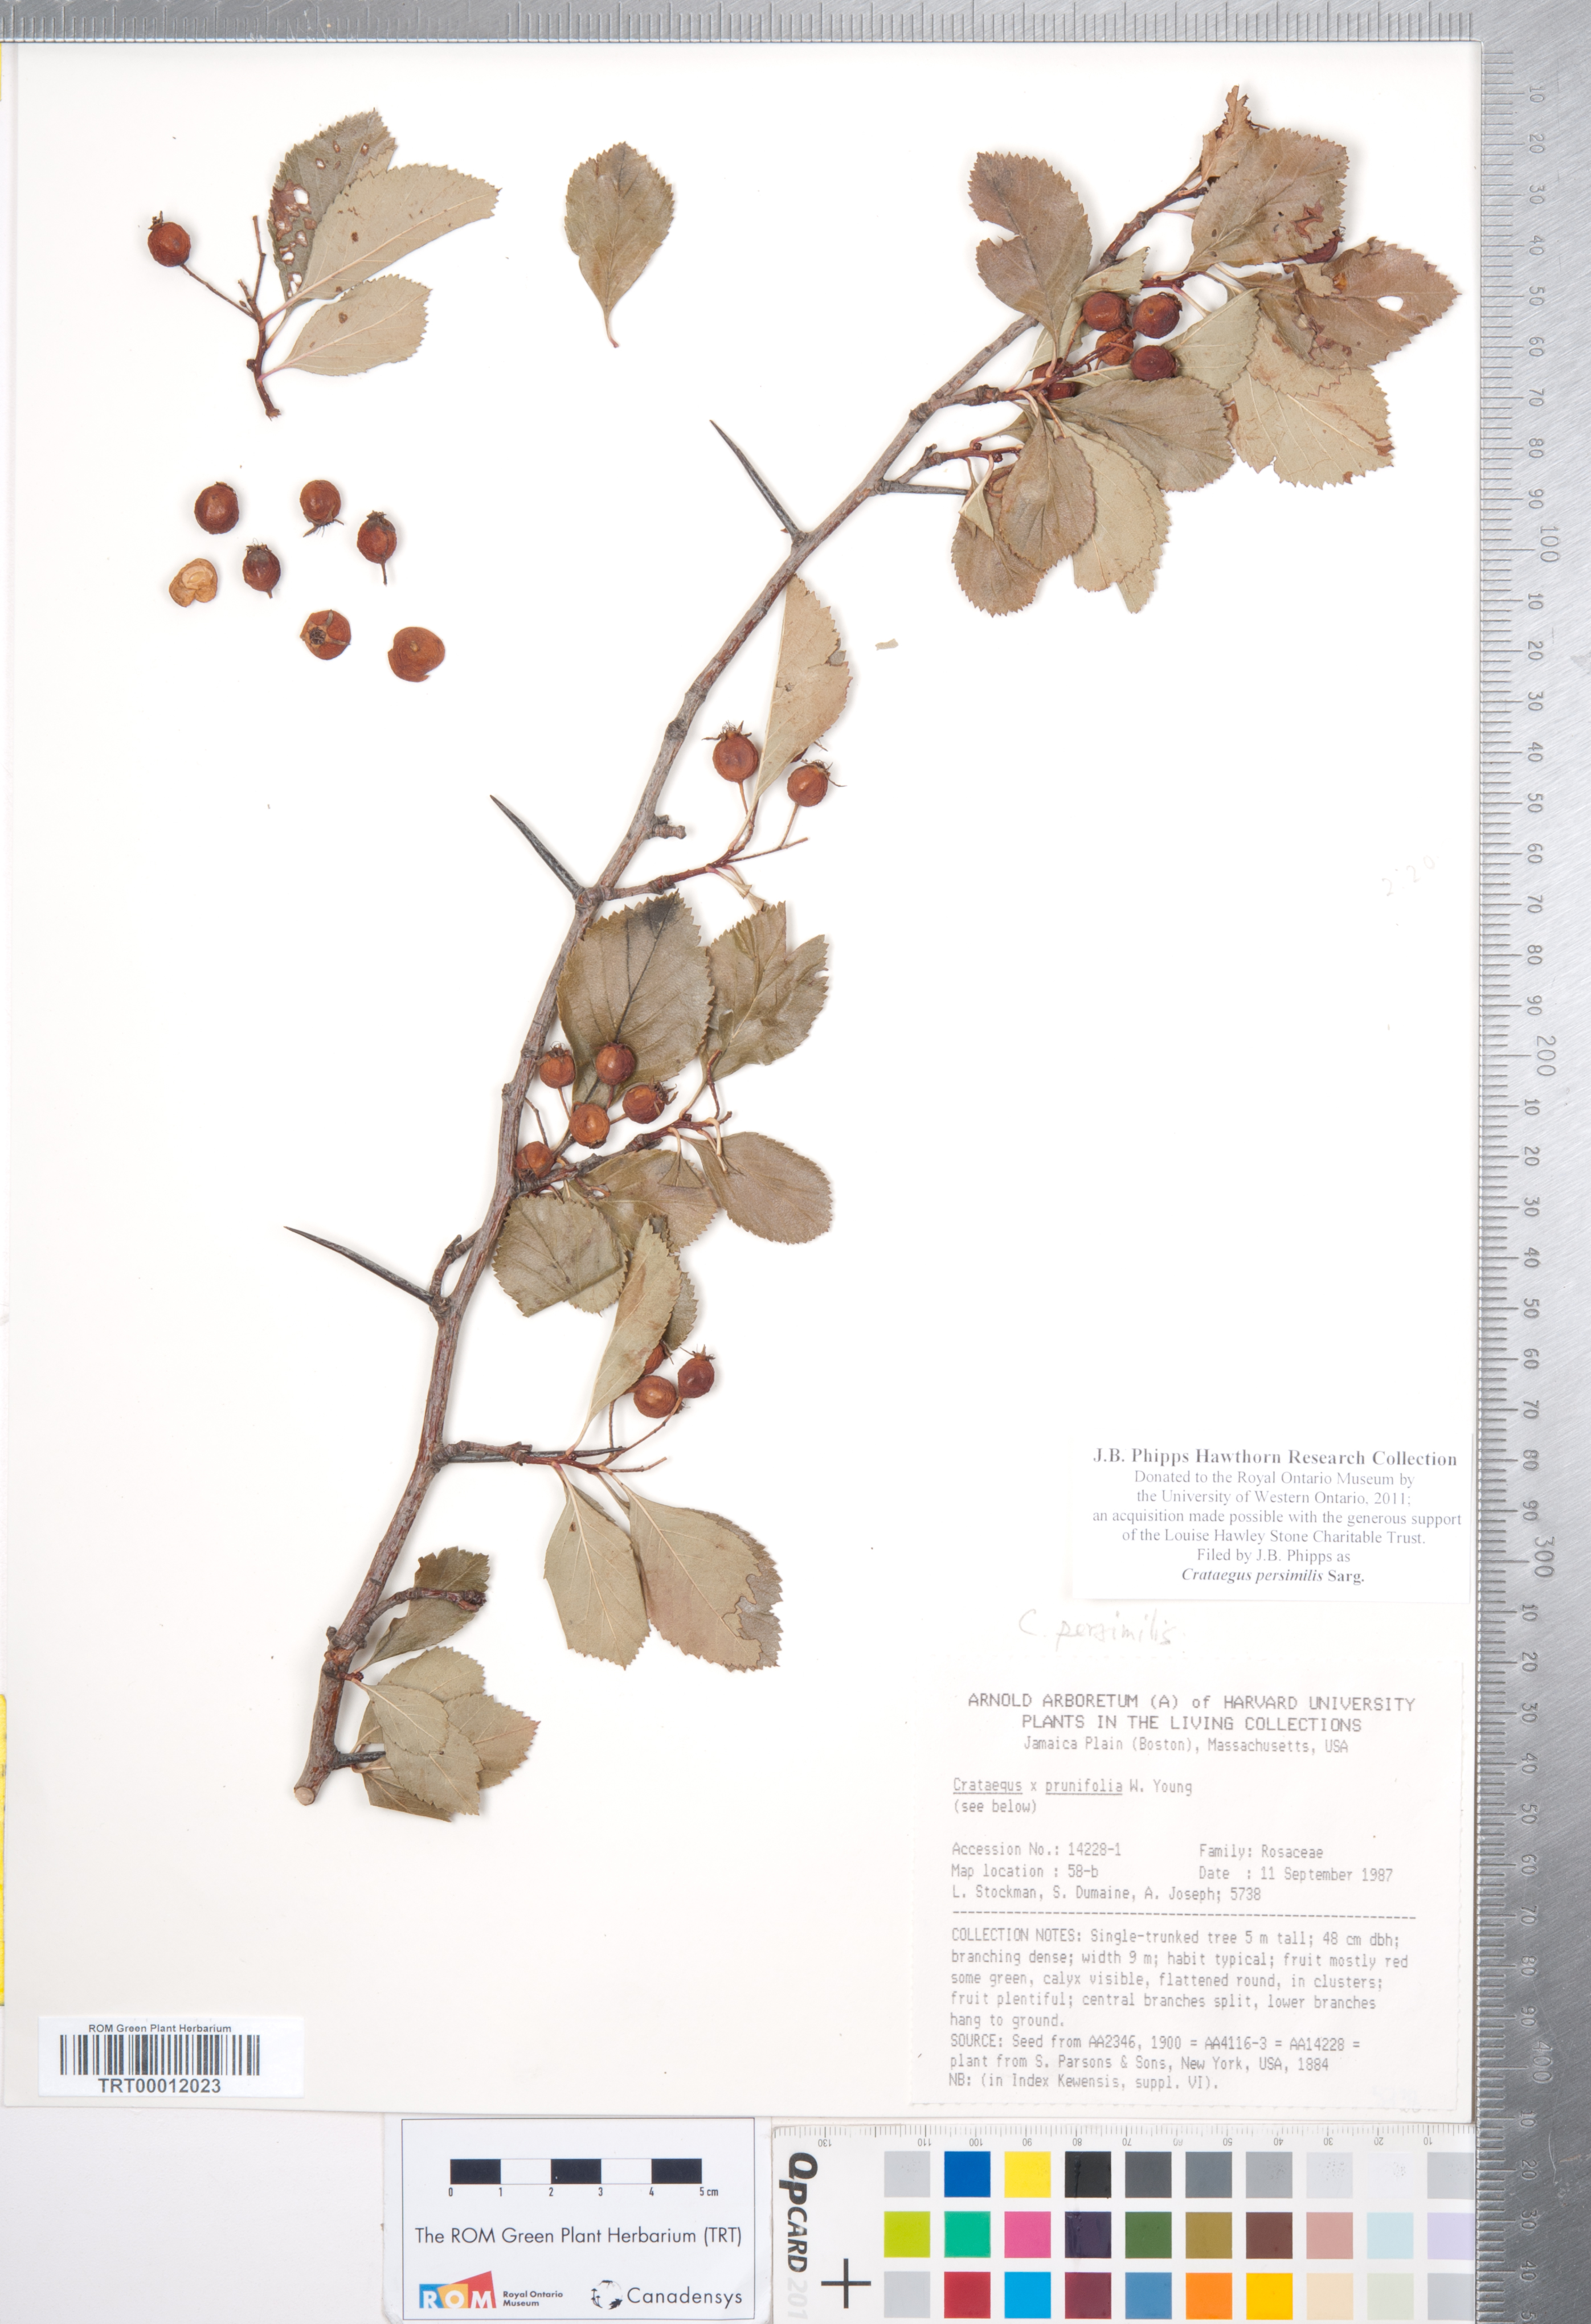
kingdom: Plantae
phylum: Tracheophyta
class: Magnoliopsida
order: Rosales
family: Rosaceae
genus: Crataegus
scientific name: Crataegus persimilis
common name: Broad-leaved cockspurthorn
